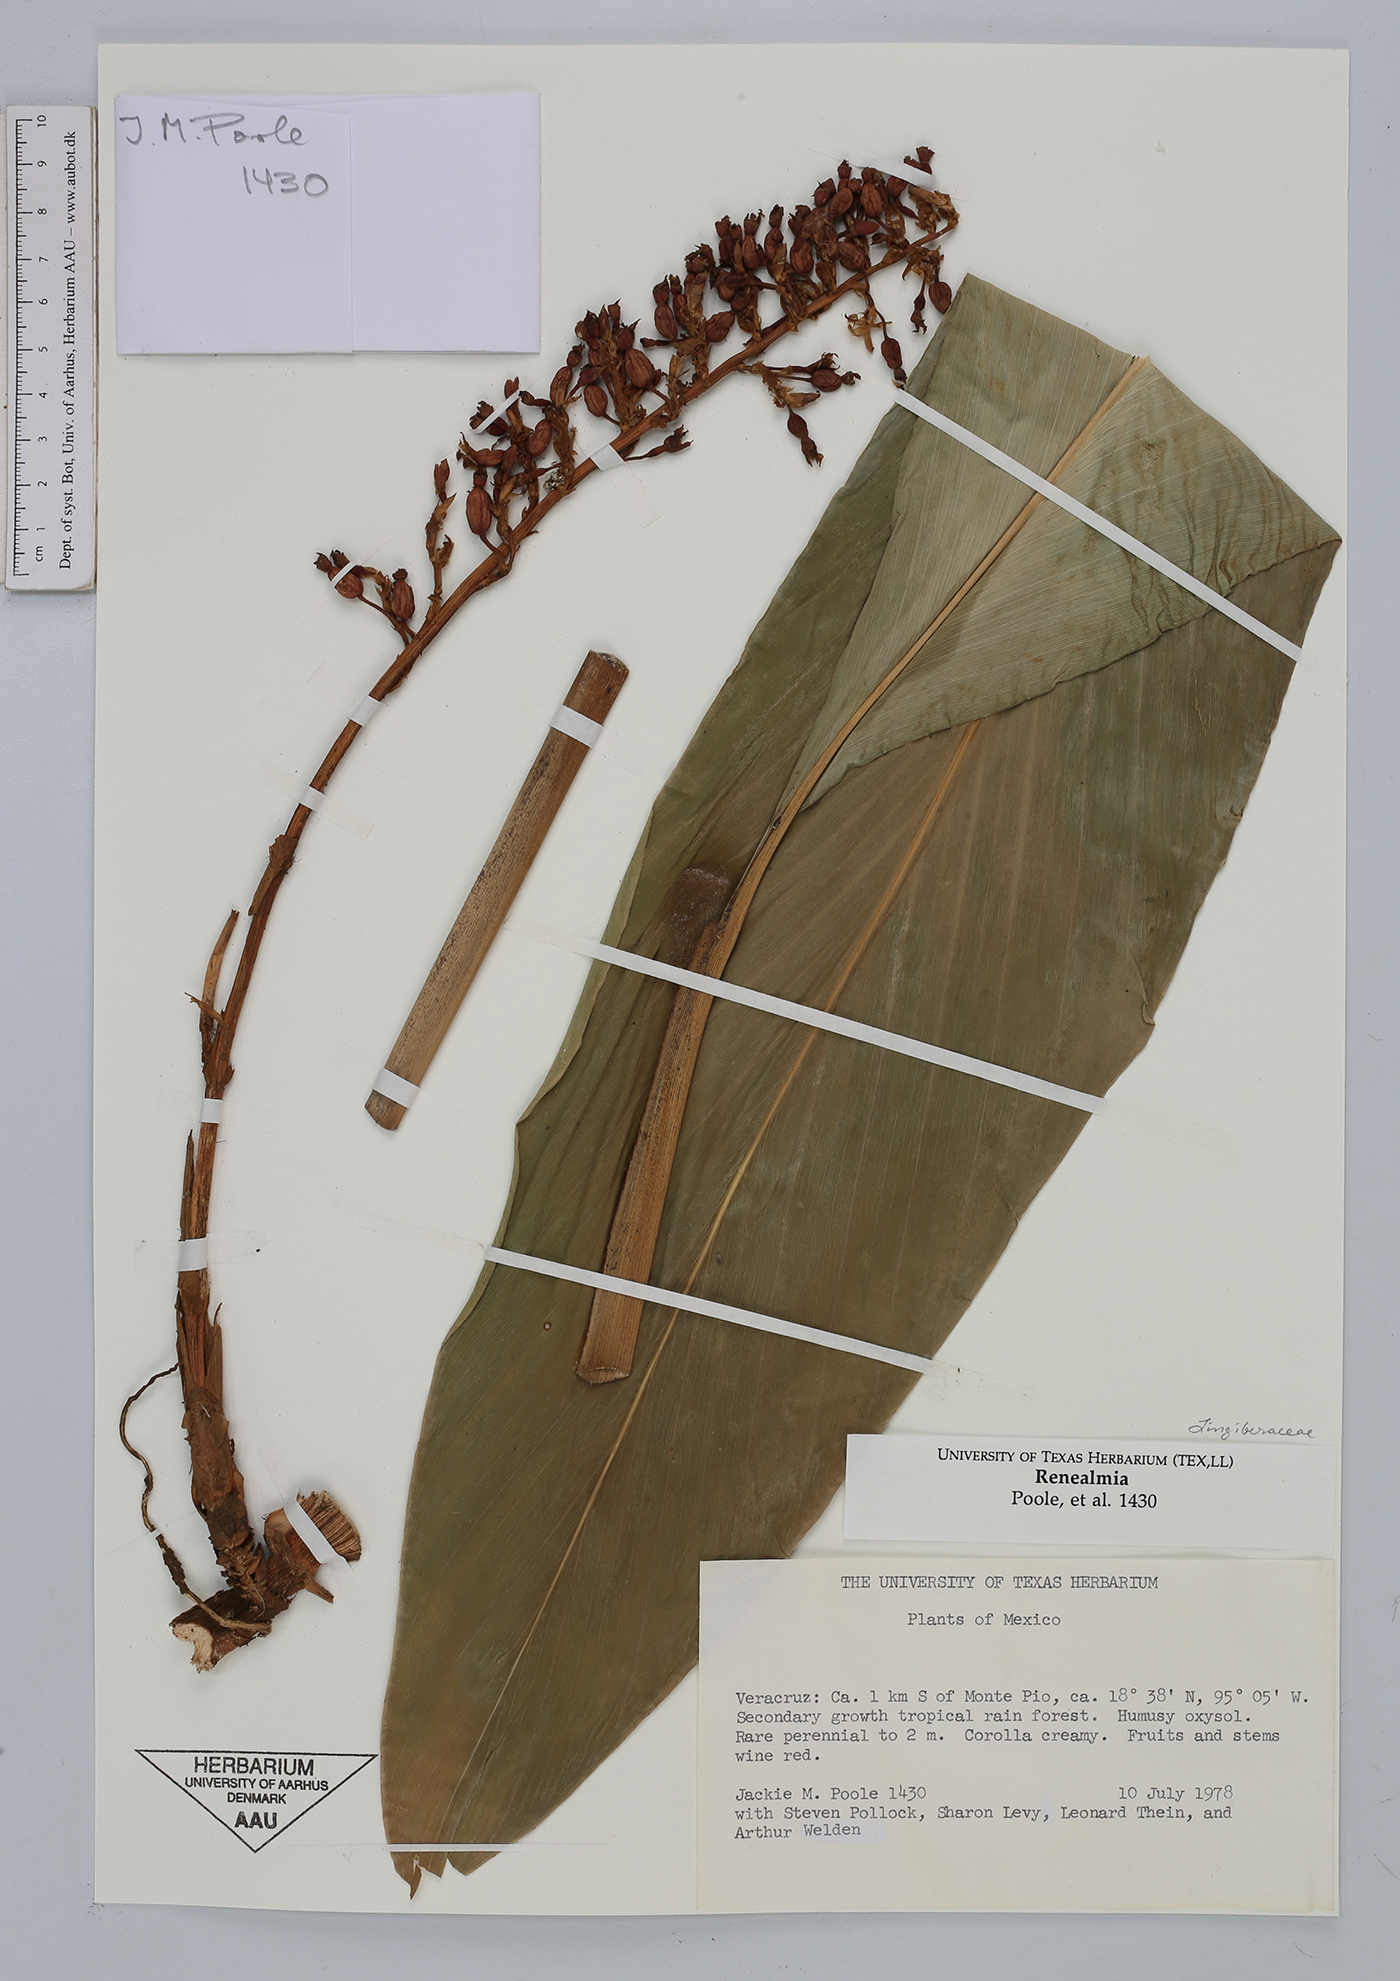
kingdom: Plantae
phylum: Tracheophyta
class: Liliopsida
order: Zingiberales
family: Zingiberaceae
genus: Renealmia
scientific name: Renealmia mexicana
